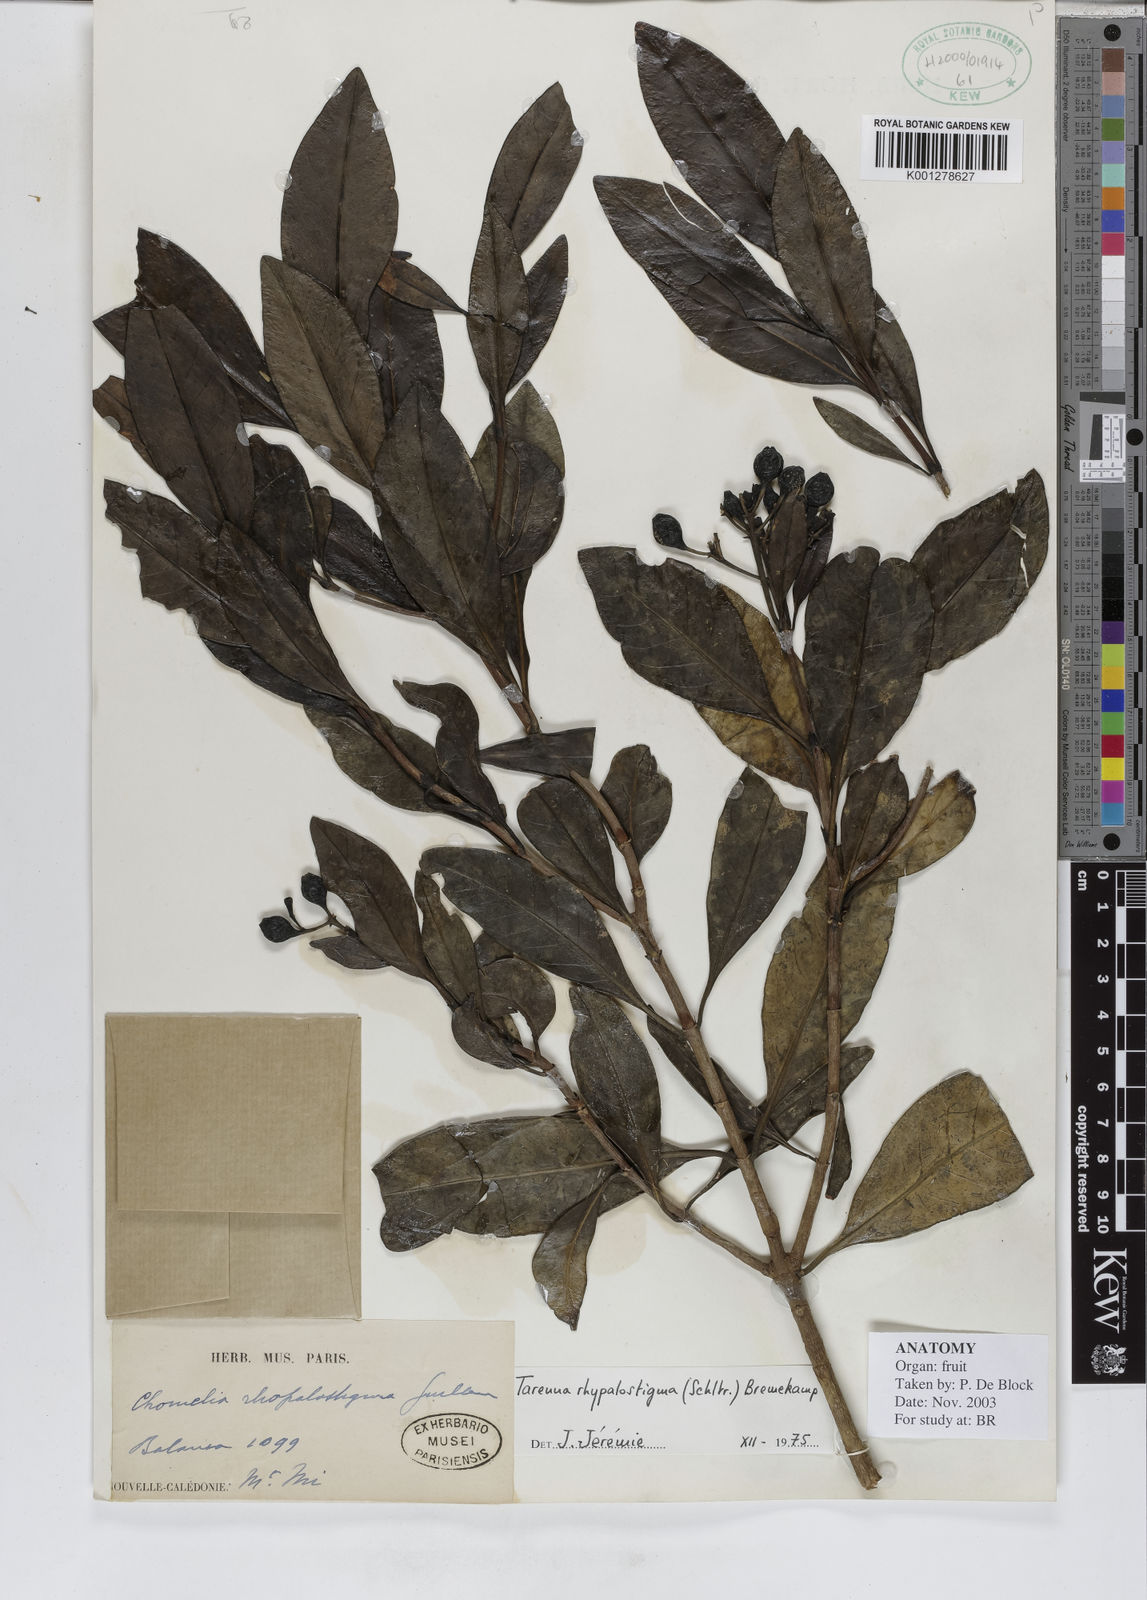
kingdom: Plantae
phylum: Tracheophyta
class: Magnoliopsida
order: Gentianales
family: Rubiaceae
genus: Tarenna
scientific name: Tarenna rhypalostigma
